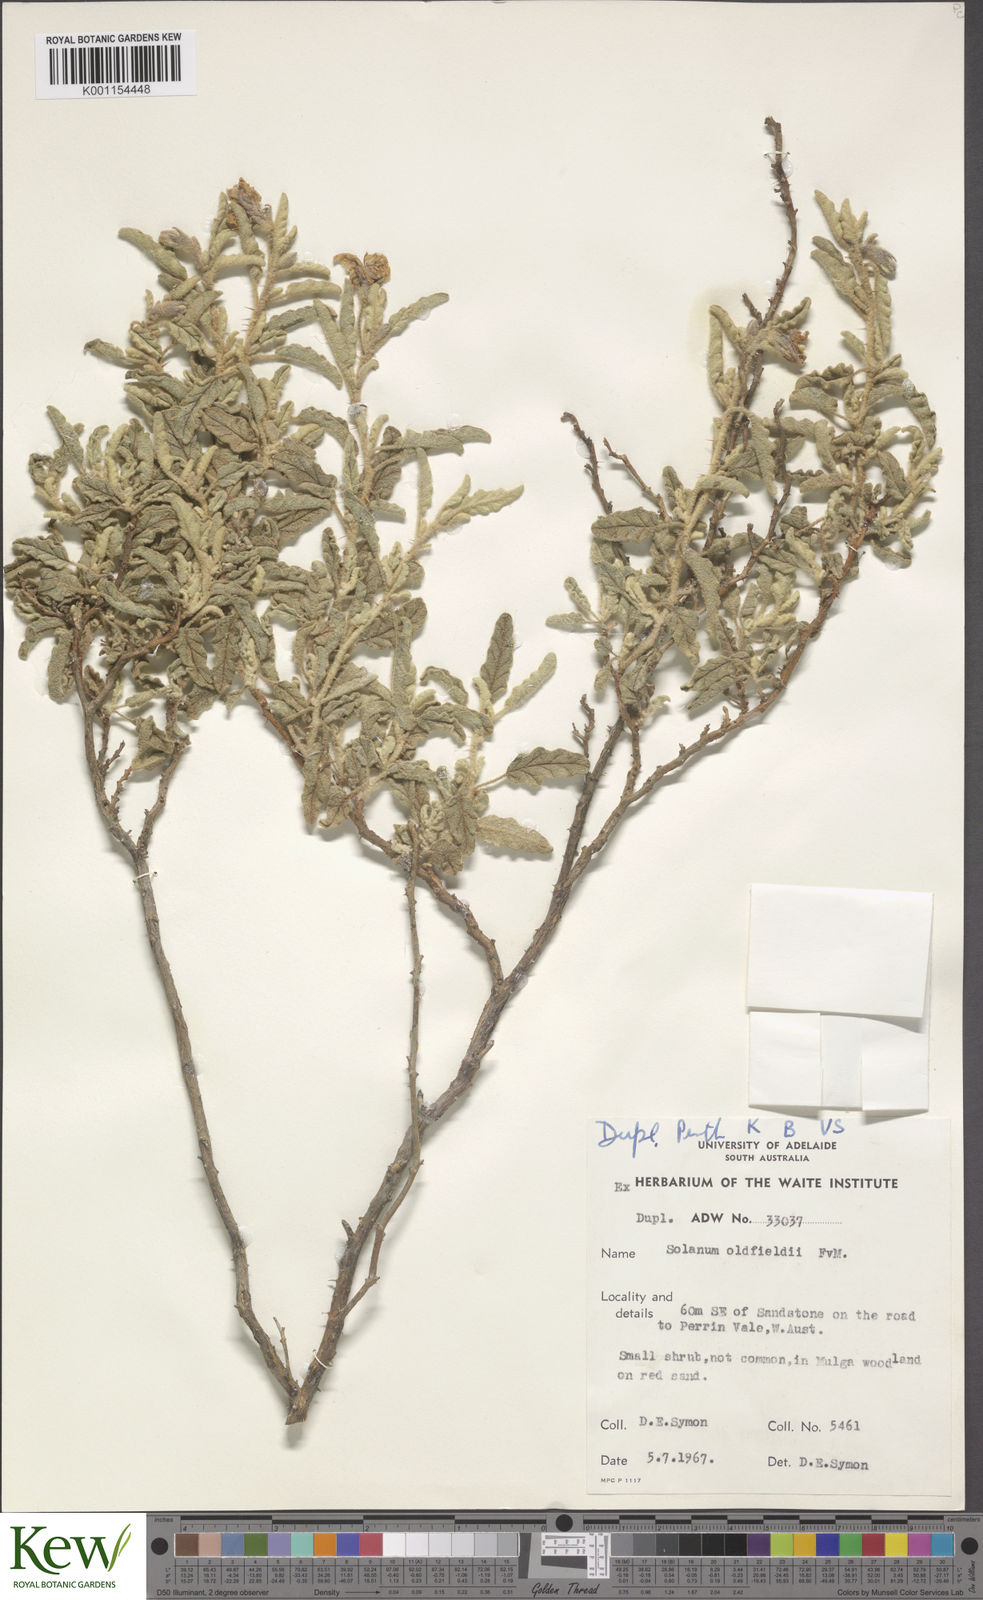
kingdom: Plantae
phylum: Tracheophyta
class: Magnoliopsida
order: Solanales
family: Solanaceae
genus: Solanum
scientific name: Solanum plicatile
